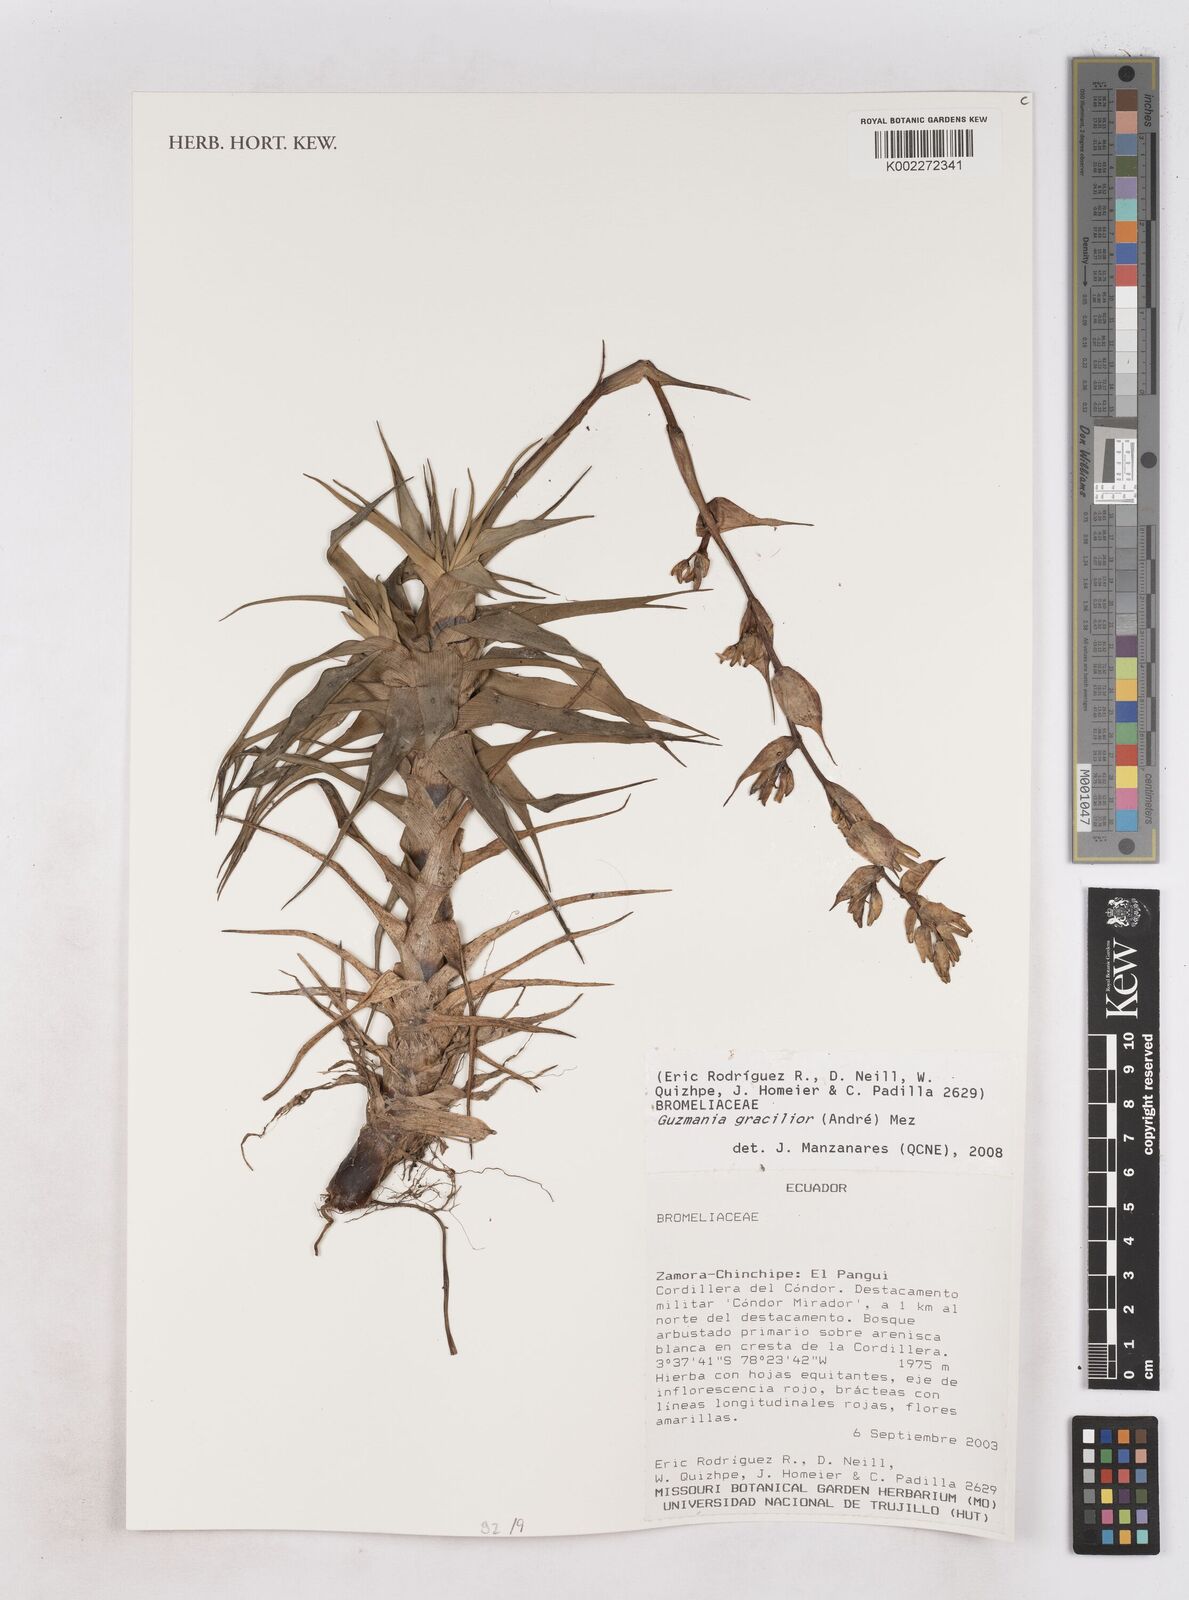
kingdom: Plantae
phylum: Tracheophyta
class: Liliopsida
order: Poales
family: Bromeliaceae
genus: Guzmania
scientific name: Guzmania gracilior
